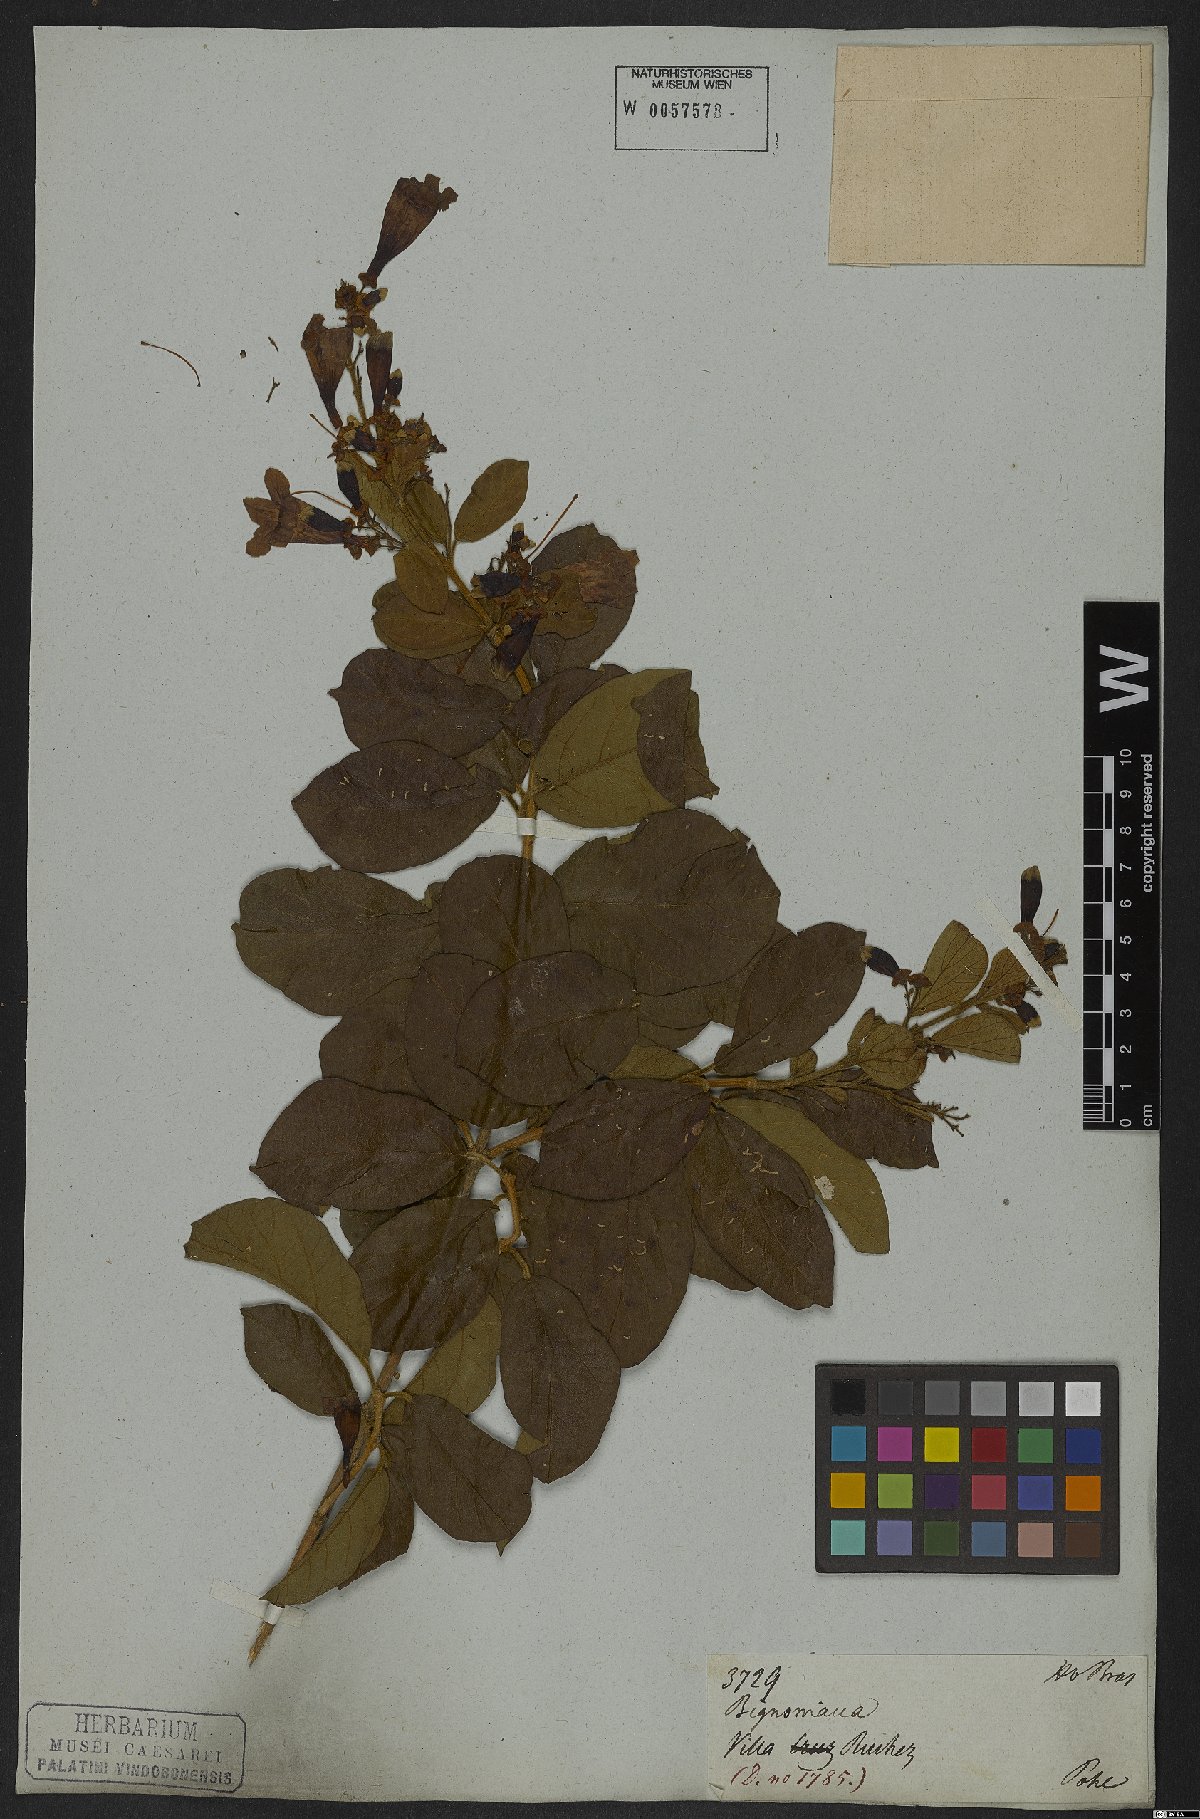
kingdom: Plantae
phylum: Tracheophyta
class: Magnoliopsida
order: Lamiales
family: Bignoniaceae
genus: Fridericia
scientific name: Fridericia samydoides
